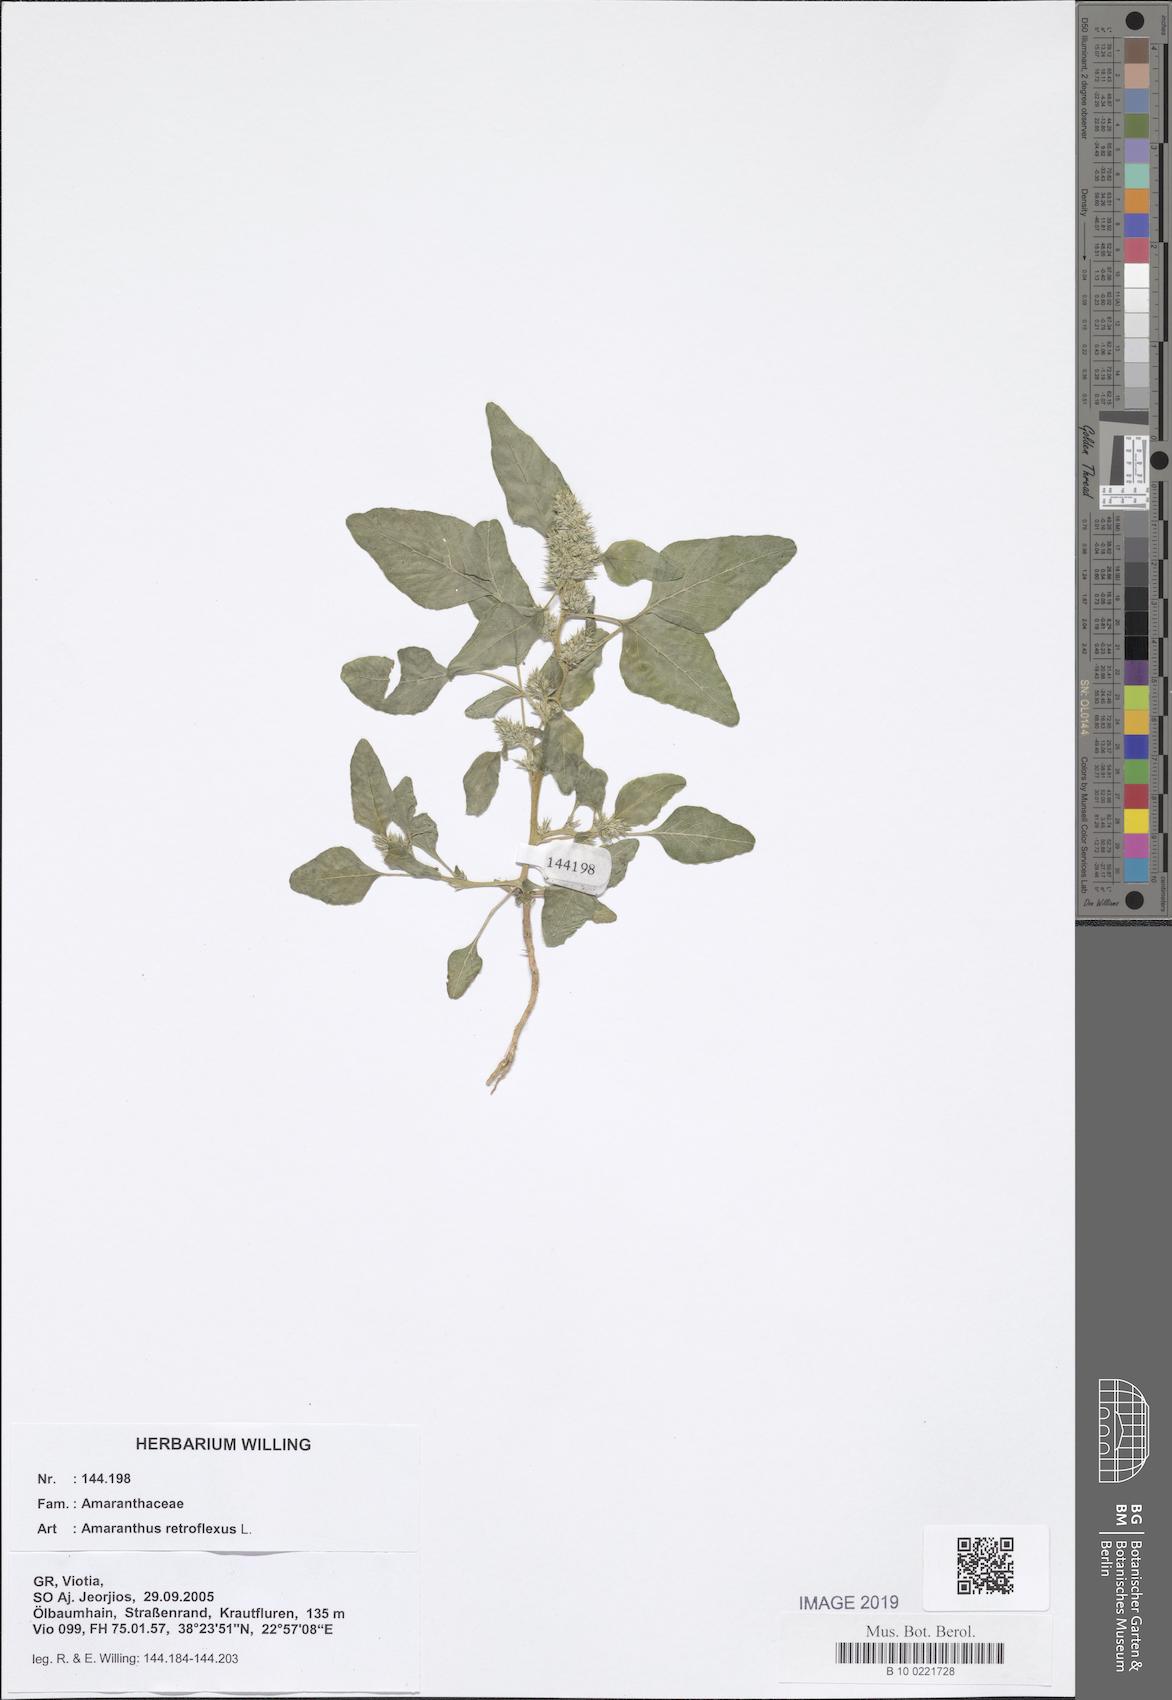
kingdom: Plantae
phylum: Tracheophyta
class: Magnoliopsida
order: Caryophyllales
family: Amaranthaceae
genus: Amaranthus
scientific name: Amaranthus retroflexus
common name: Redroot amaranth
